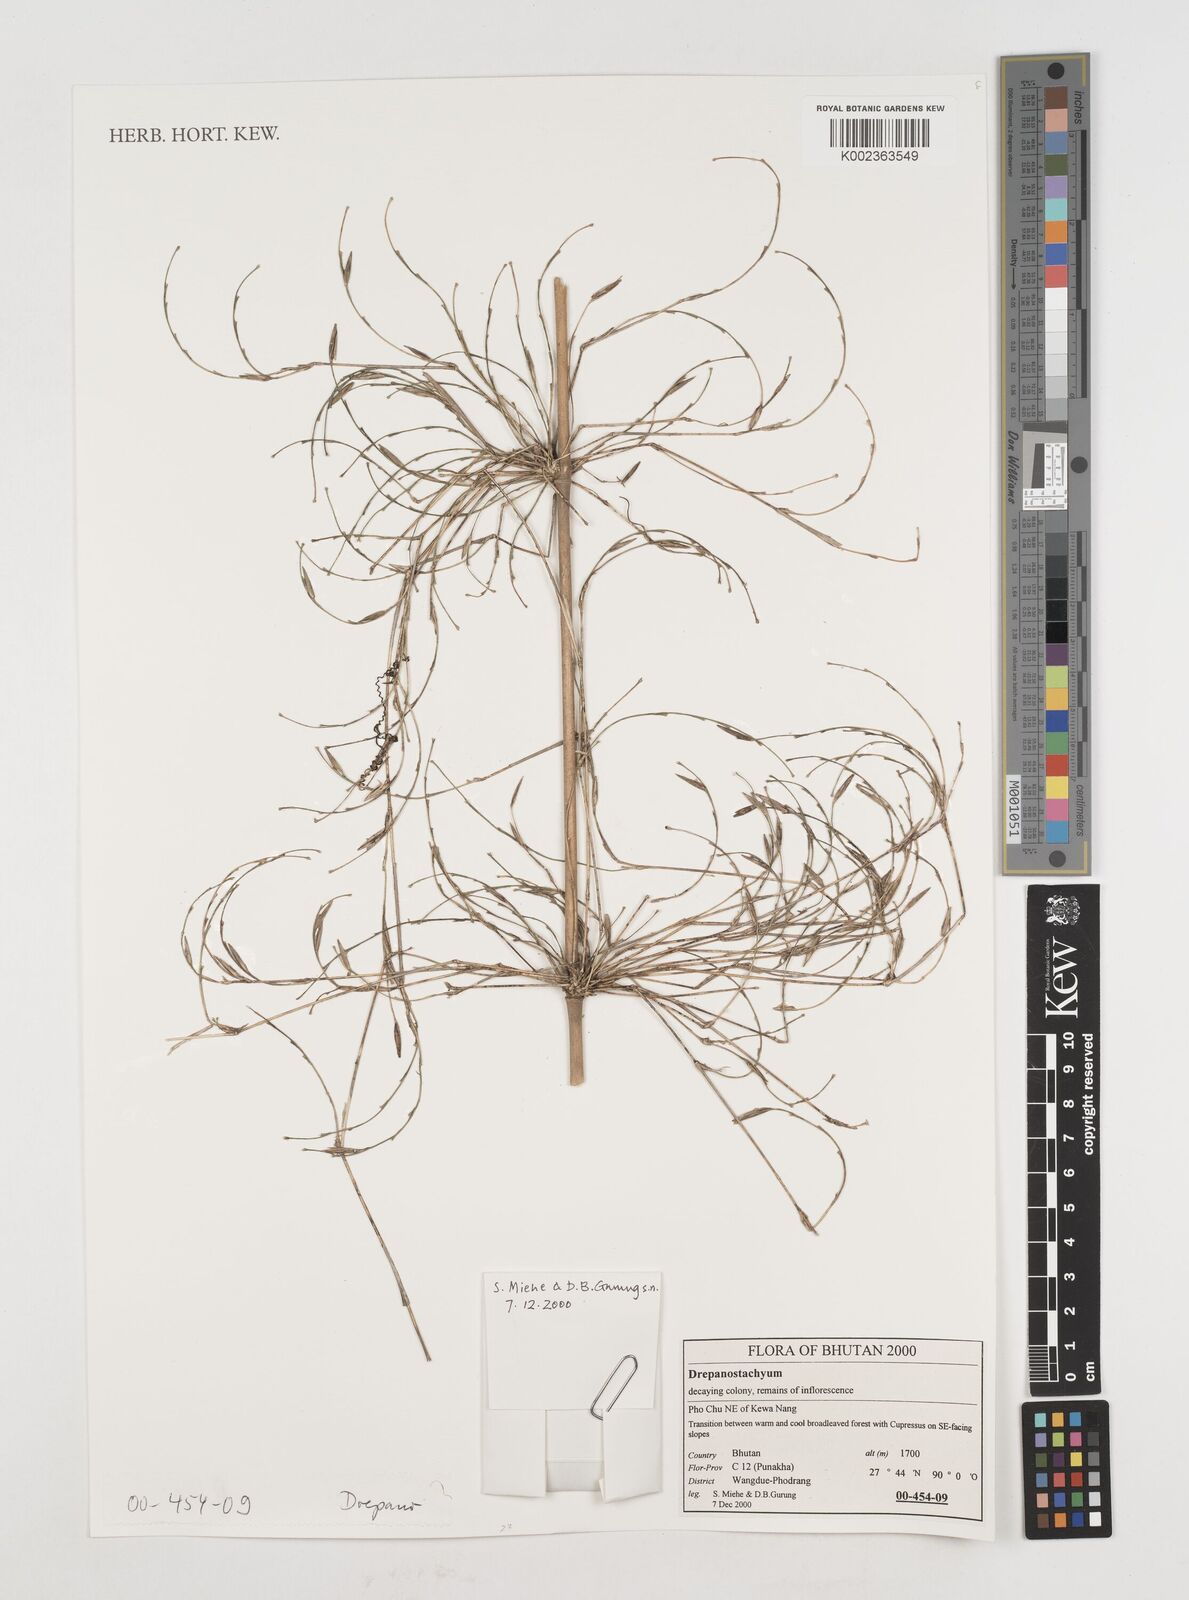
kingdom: Plantae
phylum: Tracheophyta
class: Liliopsida
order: Poales
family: Poaceae
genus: Himalayacalamus
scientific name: Himalayacalamus falconeri
